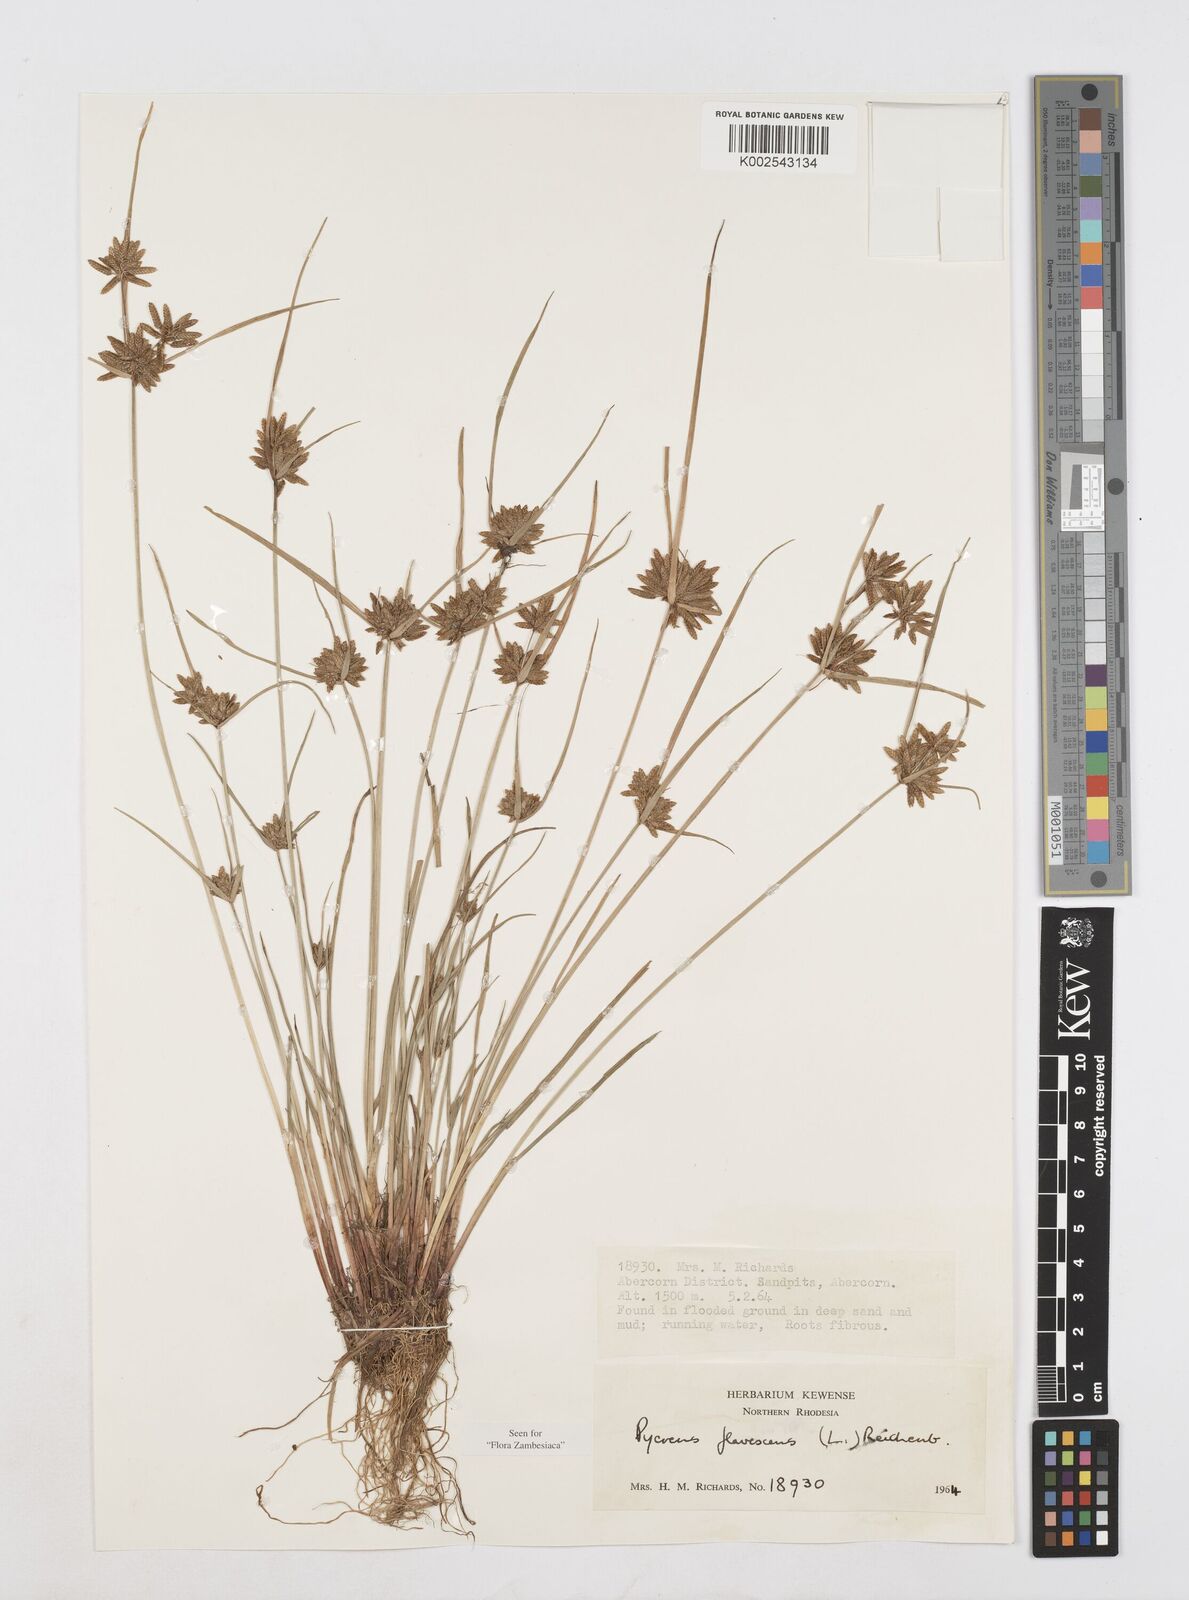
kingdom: Plantae
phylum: Tracheophyta
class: Liliopsida
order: Poales
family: Cyperaceae
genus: Cyperus
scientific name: Cyperus flavescens
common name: Yellow galingale
